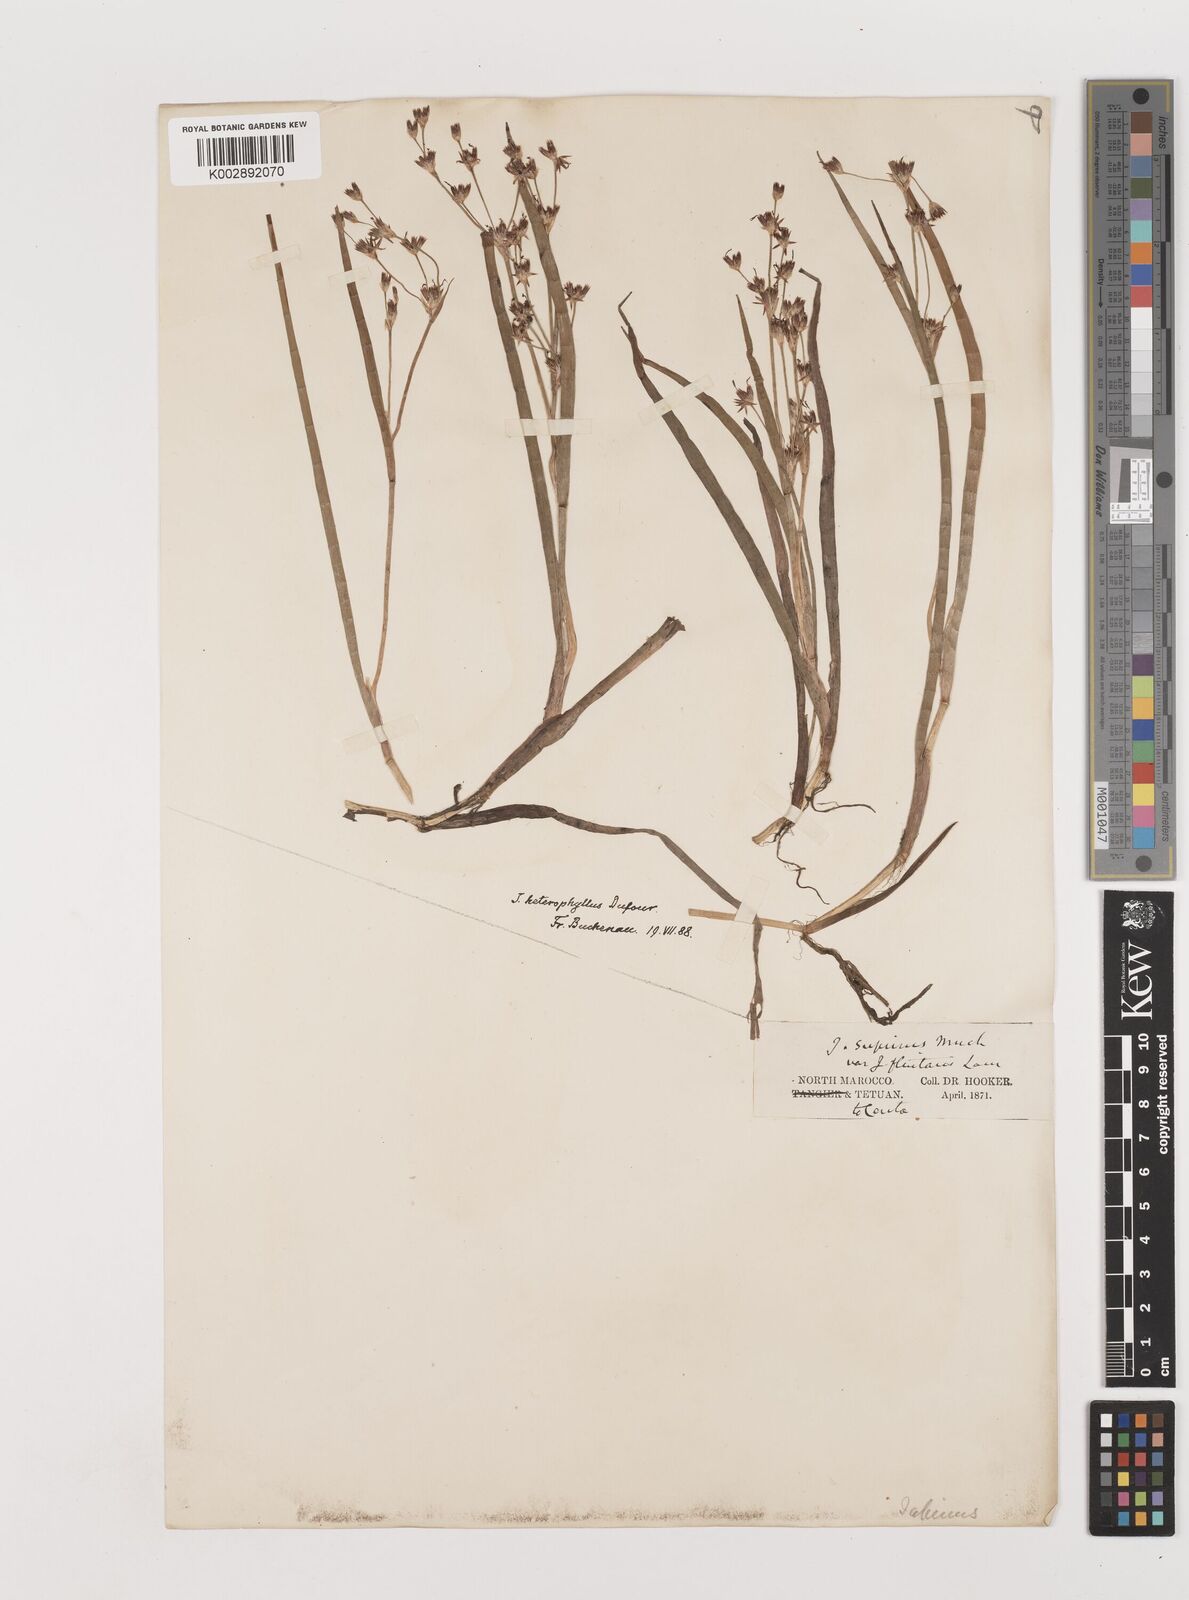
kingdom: Plantae
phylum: Tracheophyta
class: Liliopsida
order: Poales
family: Juncaceae
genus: Juncus
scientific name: Juncus heterophyllus
